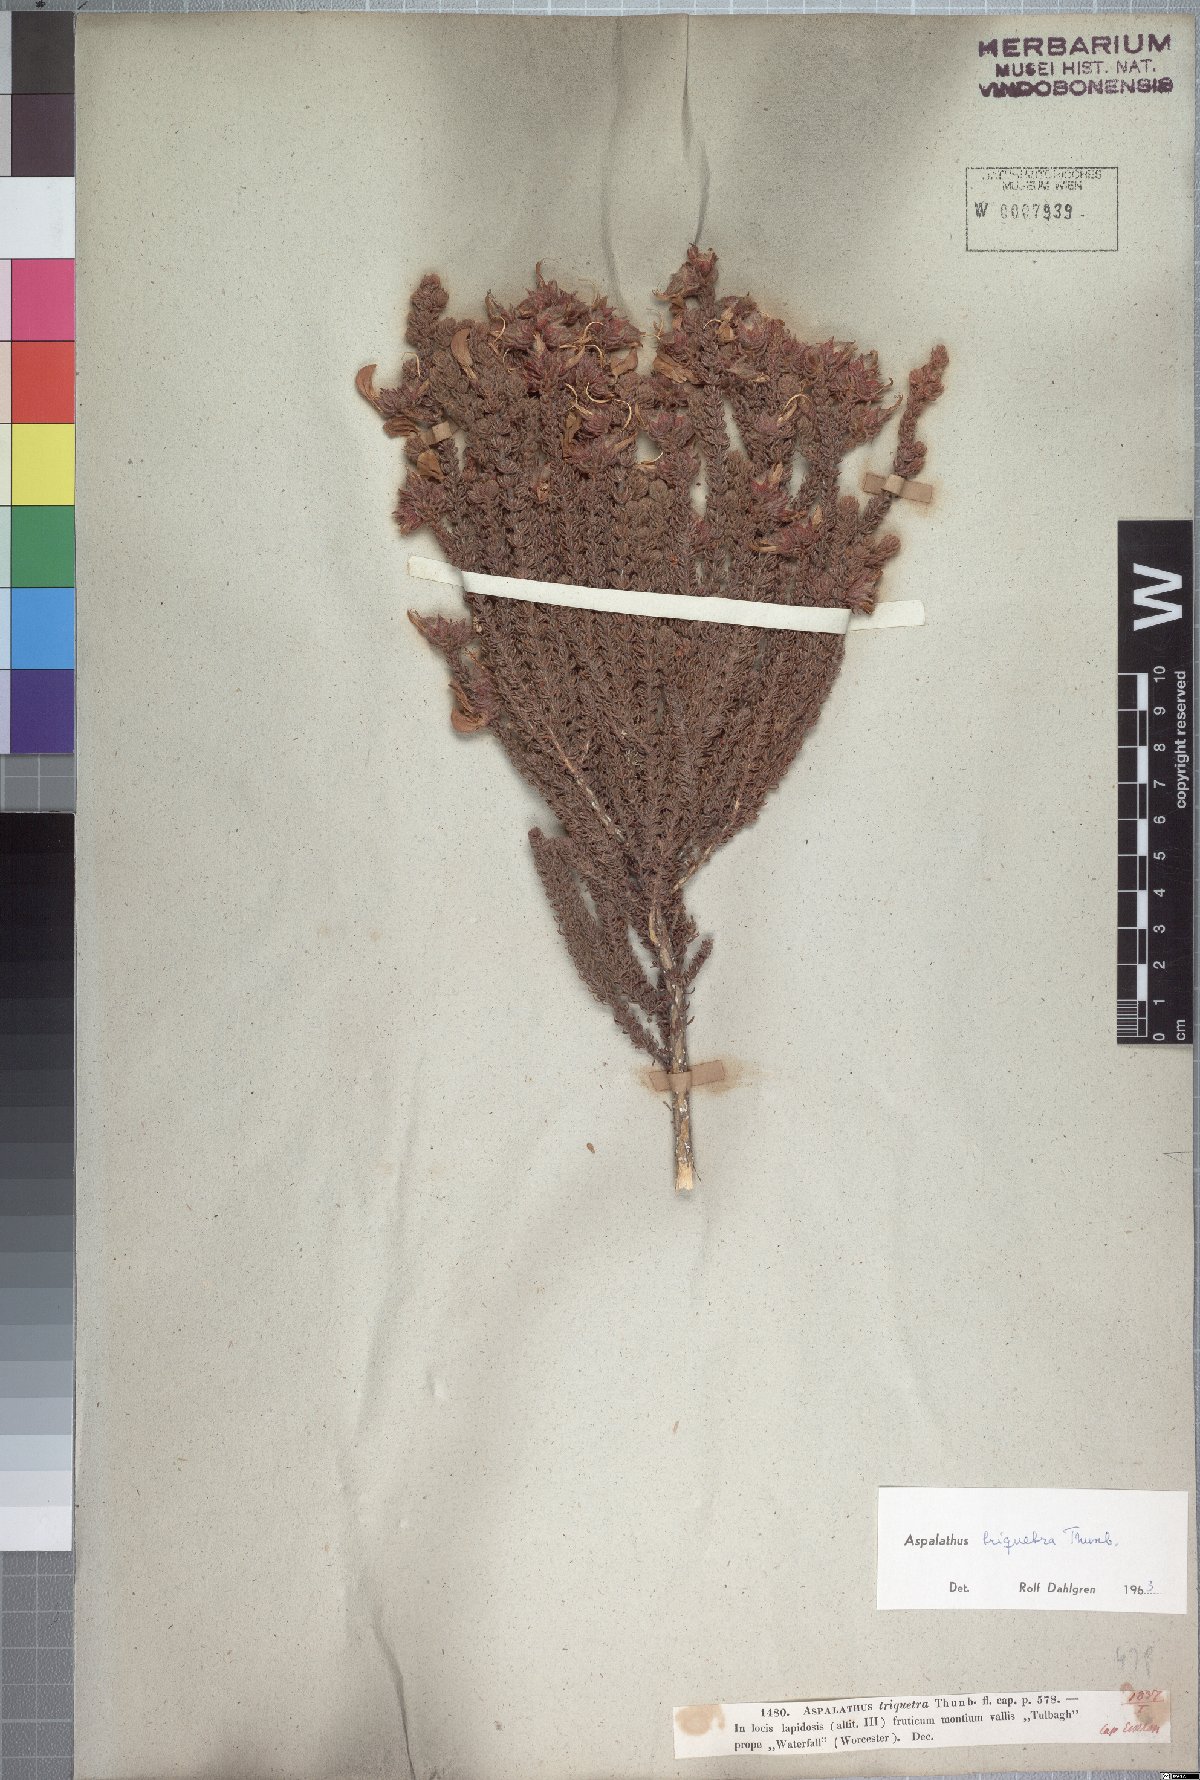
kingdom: Plantae
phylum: Tracheophyta
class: Magnoliopsida
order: Fabales
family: Fabaceae
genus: Aspalathus
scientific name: Aspalathus triquetra
